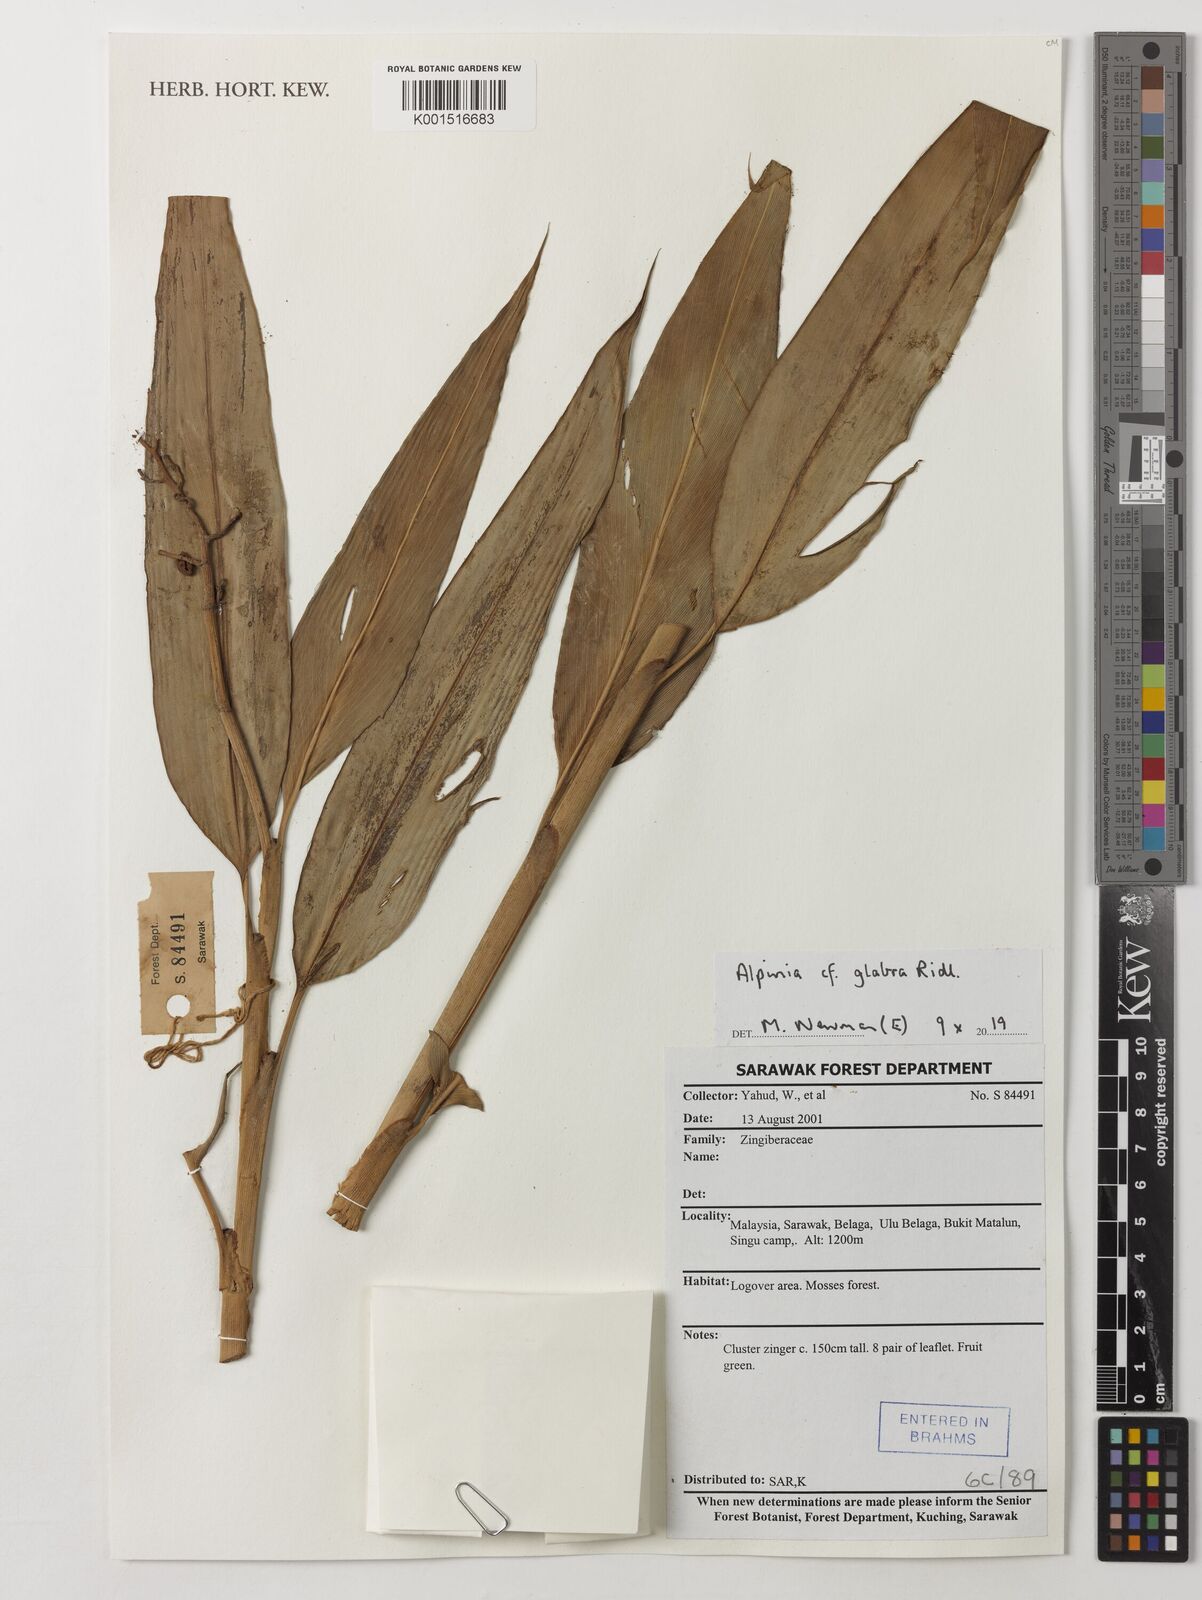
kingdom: Plantae
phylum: Tracheophyta
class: Liliopsida
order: Zingiberales
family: Zingiberaceae
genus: Alpinia
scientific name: Alpinia glabra
